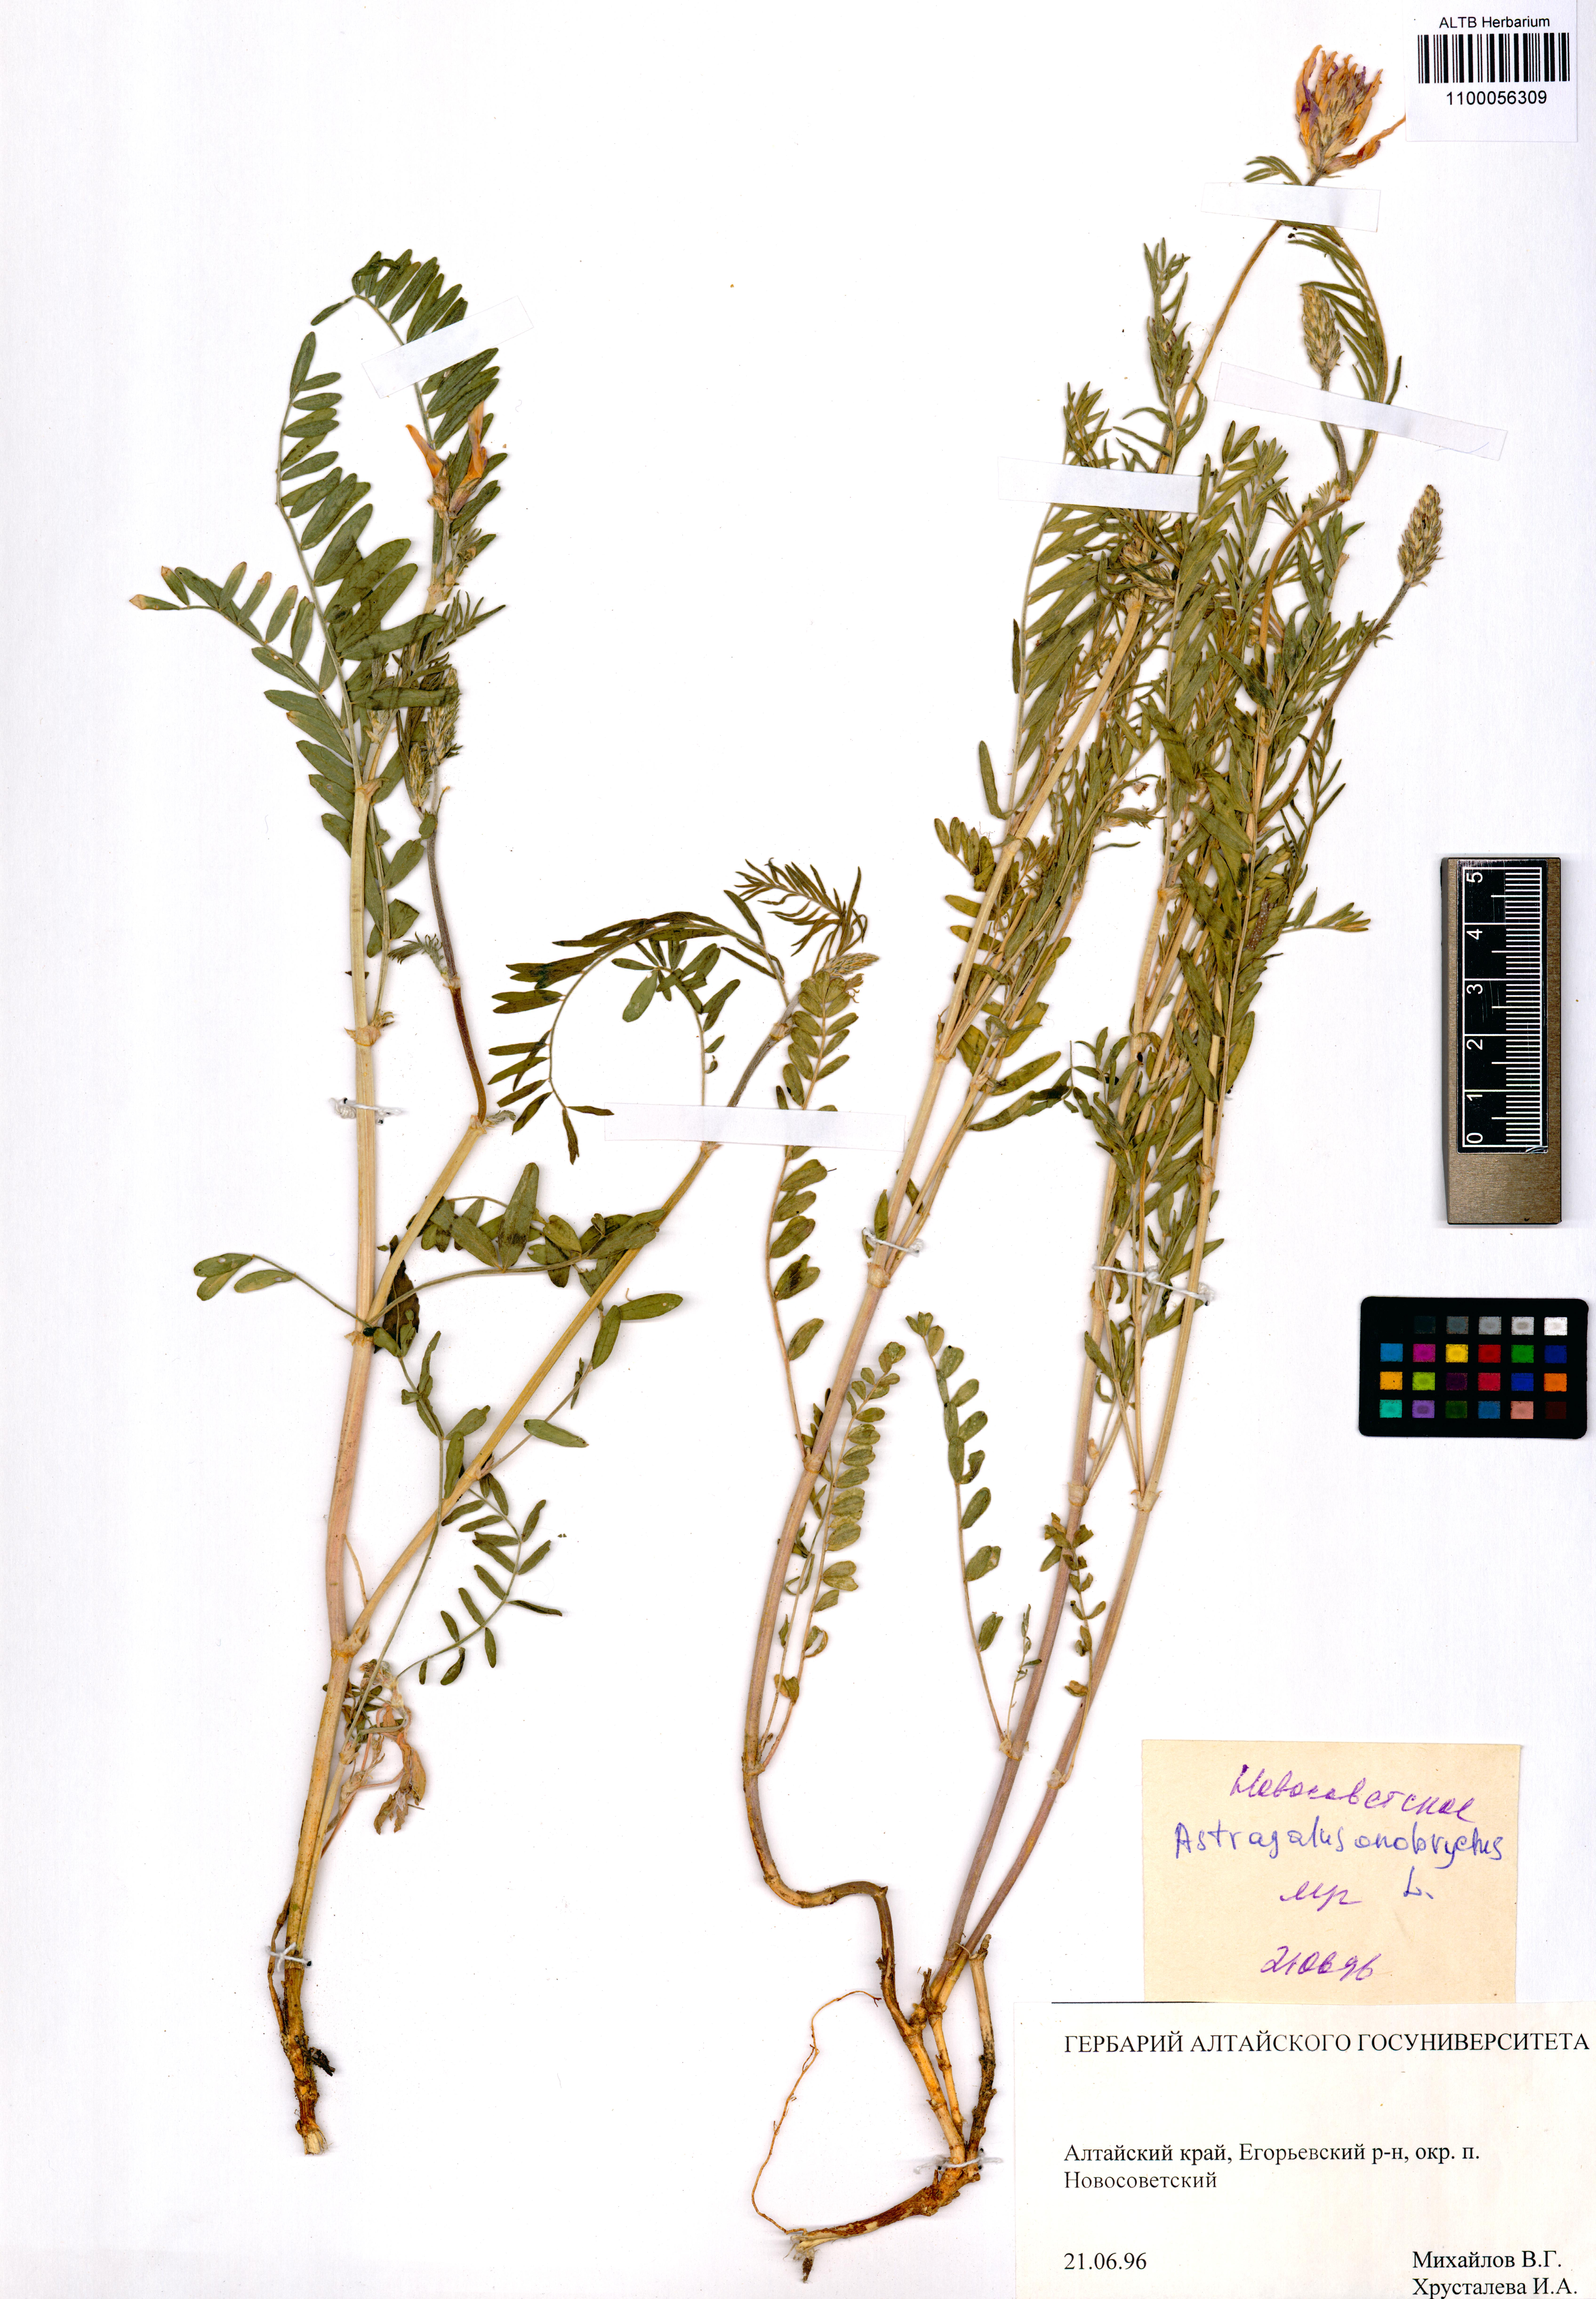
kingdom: Plantae
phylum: Tracheophyta
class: Magnoliopsida
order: Fabales
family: Fabaceae
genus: Astragalus
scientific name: Astragalus onobrychis
